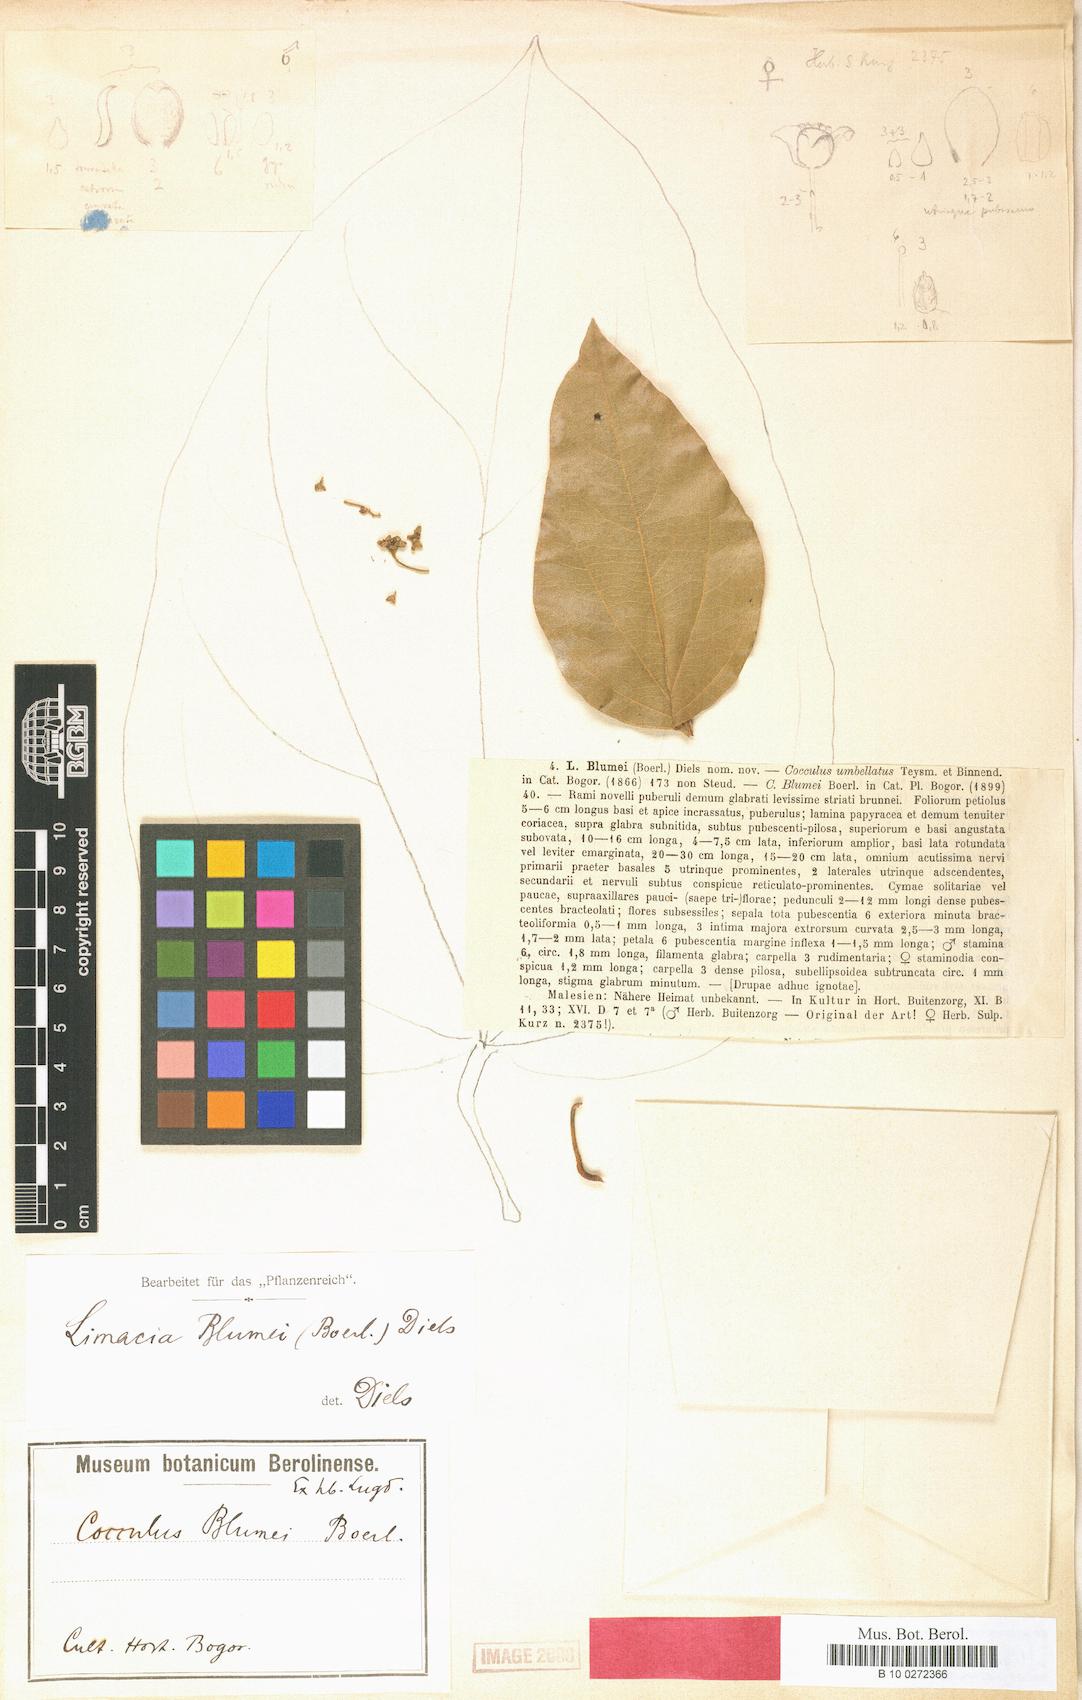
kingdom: Plantae
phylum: Tracheophyta
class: Magnoliopsida
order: Ranunculales
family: Menispermaceae
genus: Limacia
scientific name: Limacia blumei
